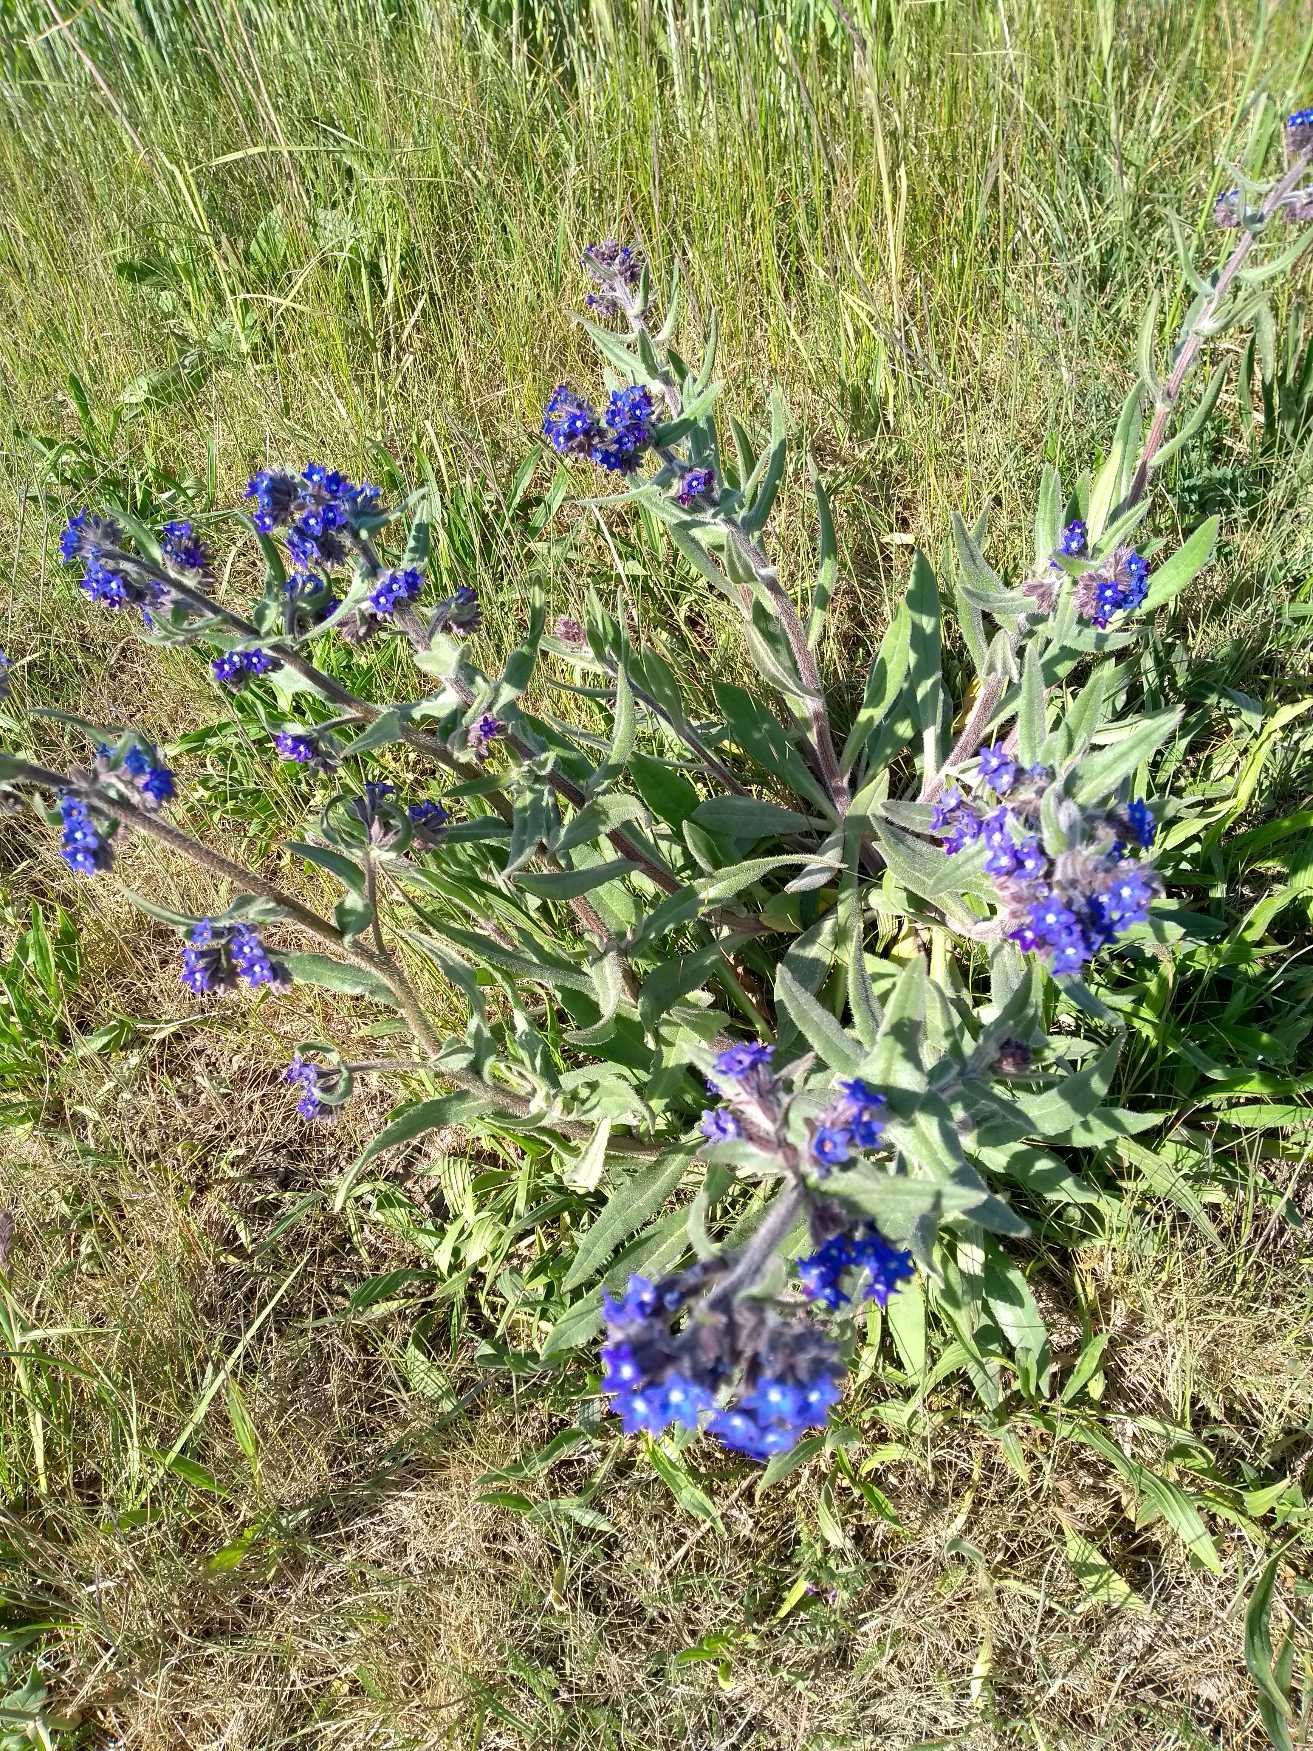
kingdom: Plantae
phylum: Tracheophyta
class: Magnoliopsida
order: Boraginales
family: Boraginaceae
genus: Anchusa
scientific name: Anchusa officinalis
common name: Læge-oksetunge
